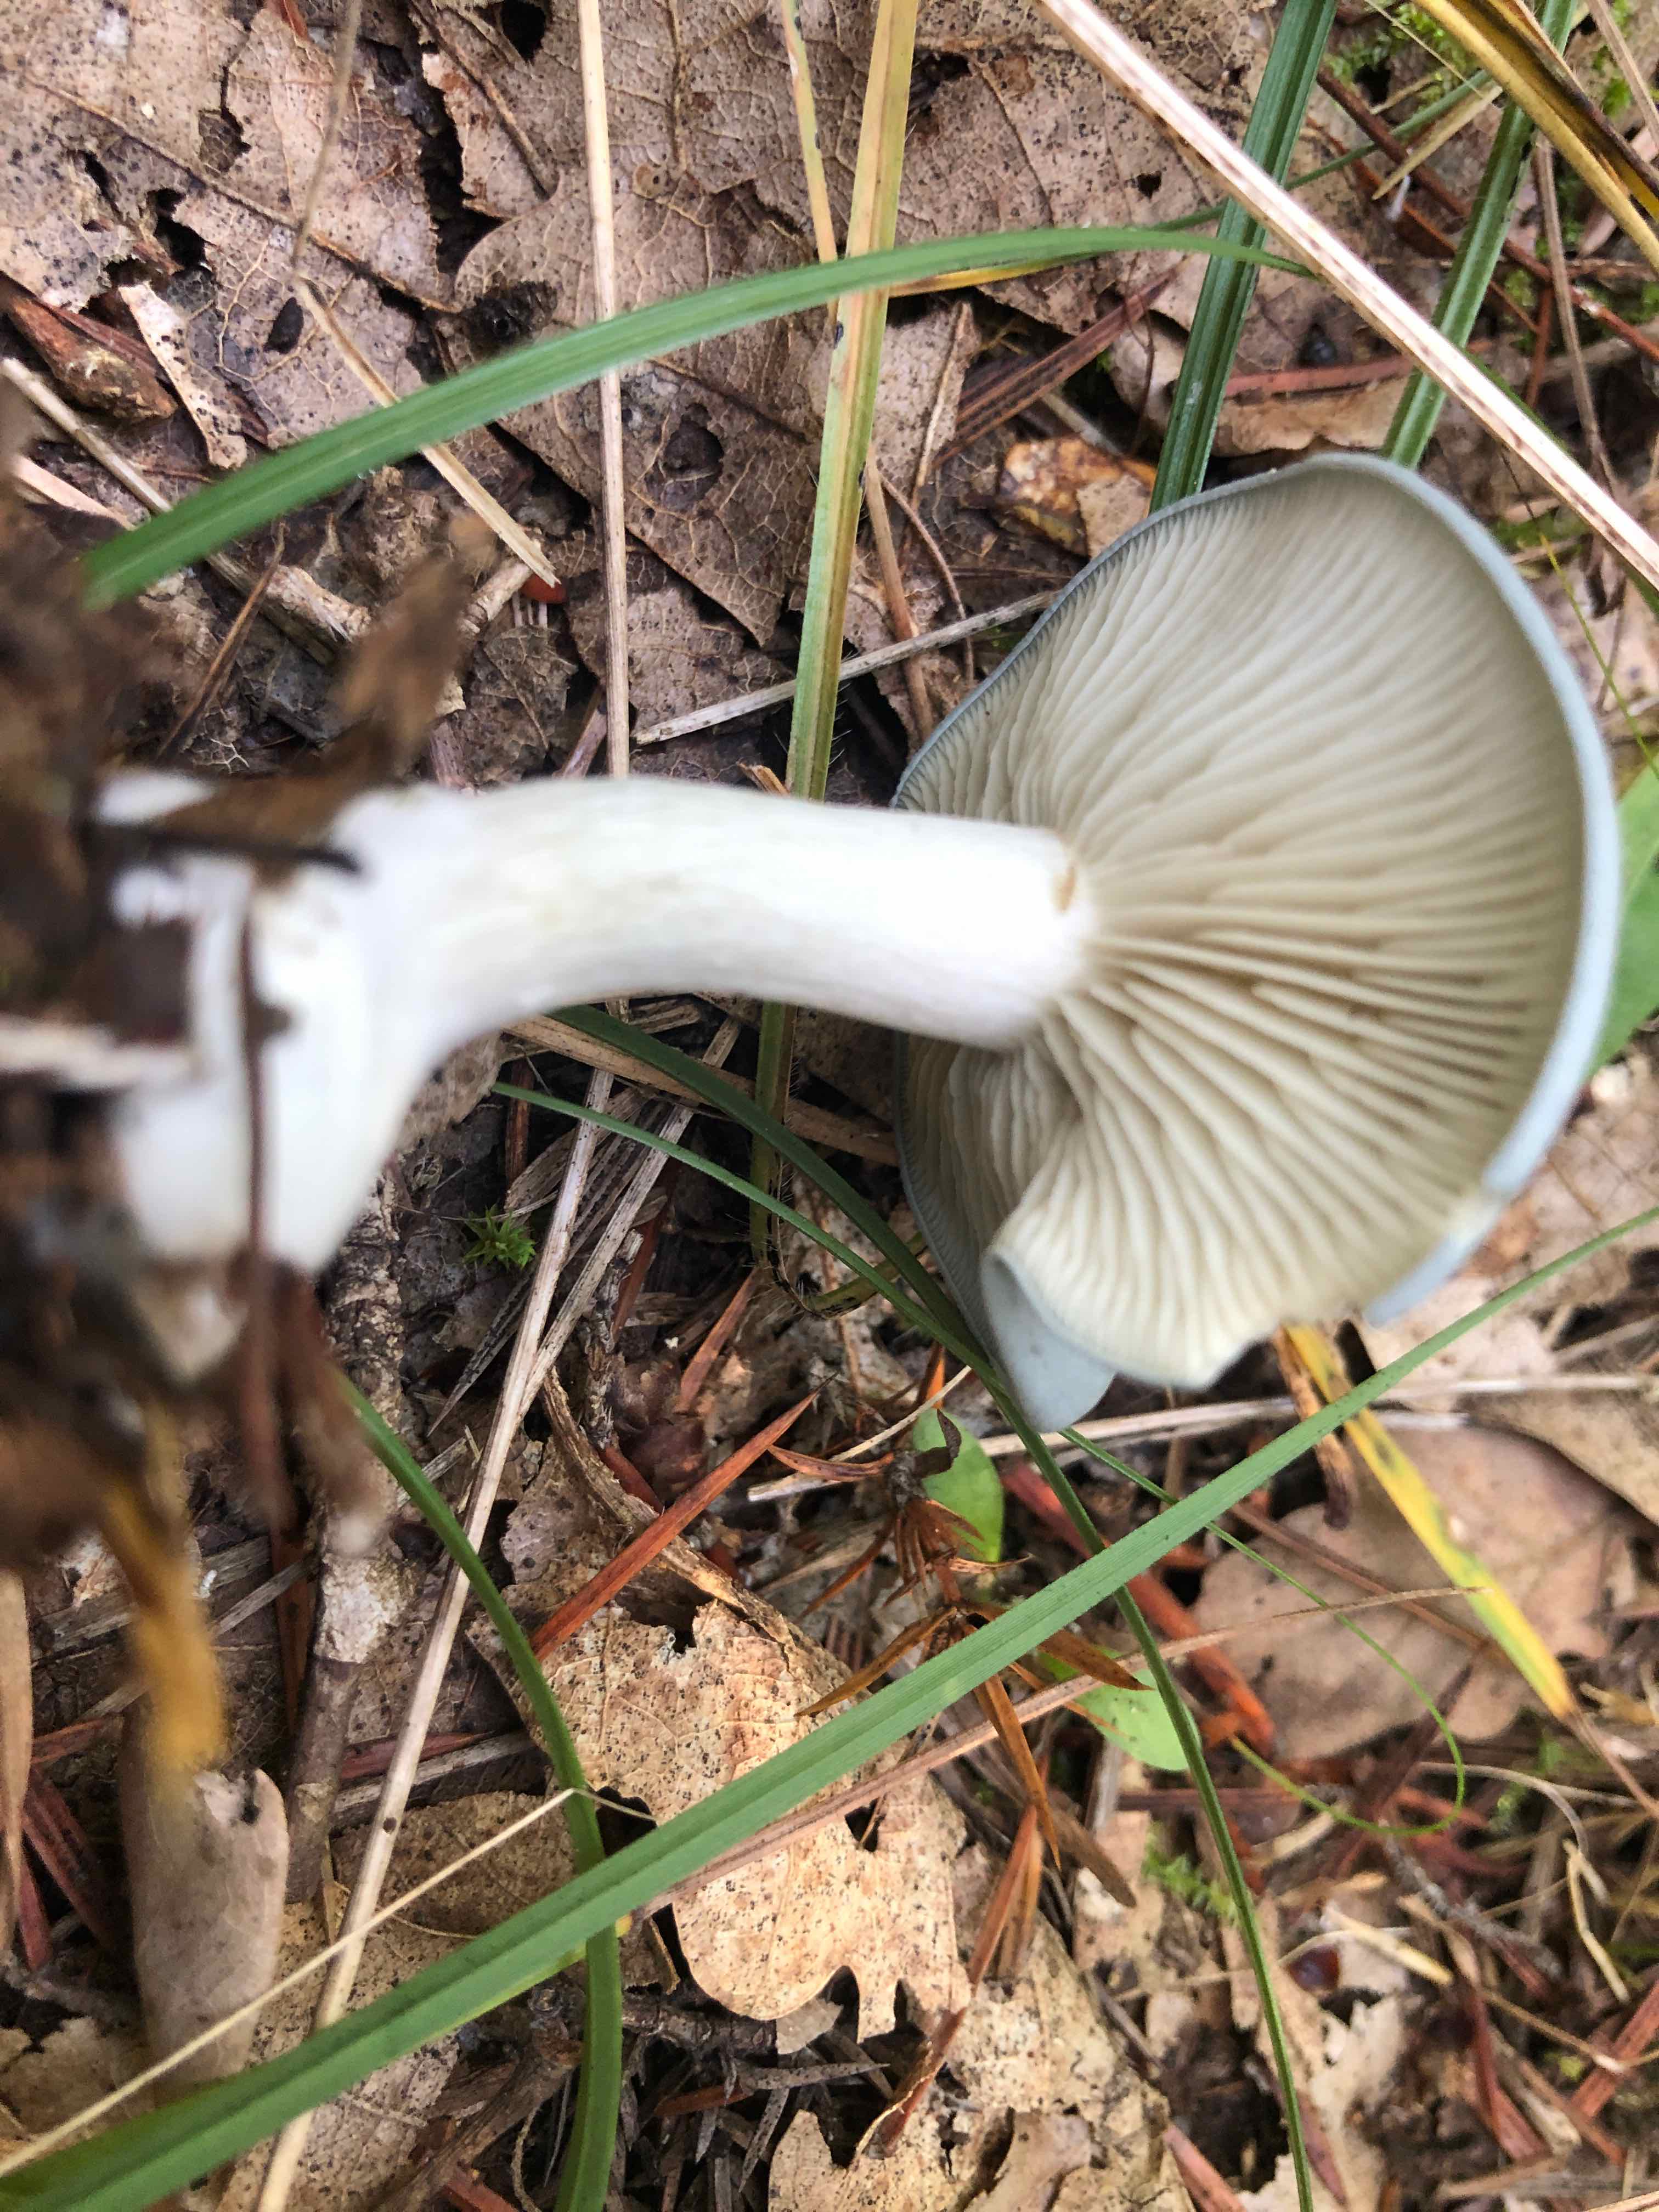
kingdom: Fungi
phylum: Basidiomycota
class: Agaricomycetes
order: Agaricales
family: Tricholomataceae
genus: Clitocybe
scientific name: Clitocybe odora
